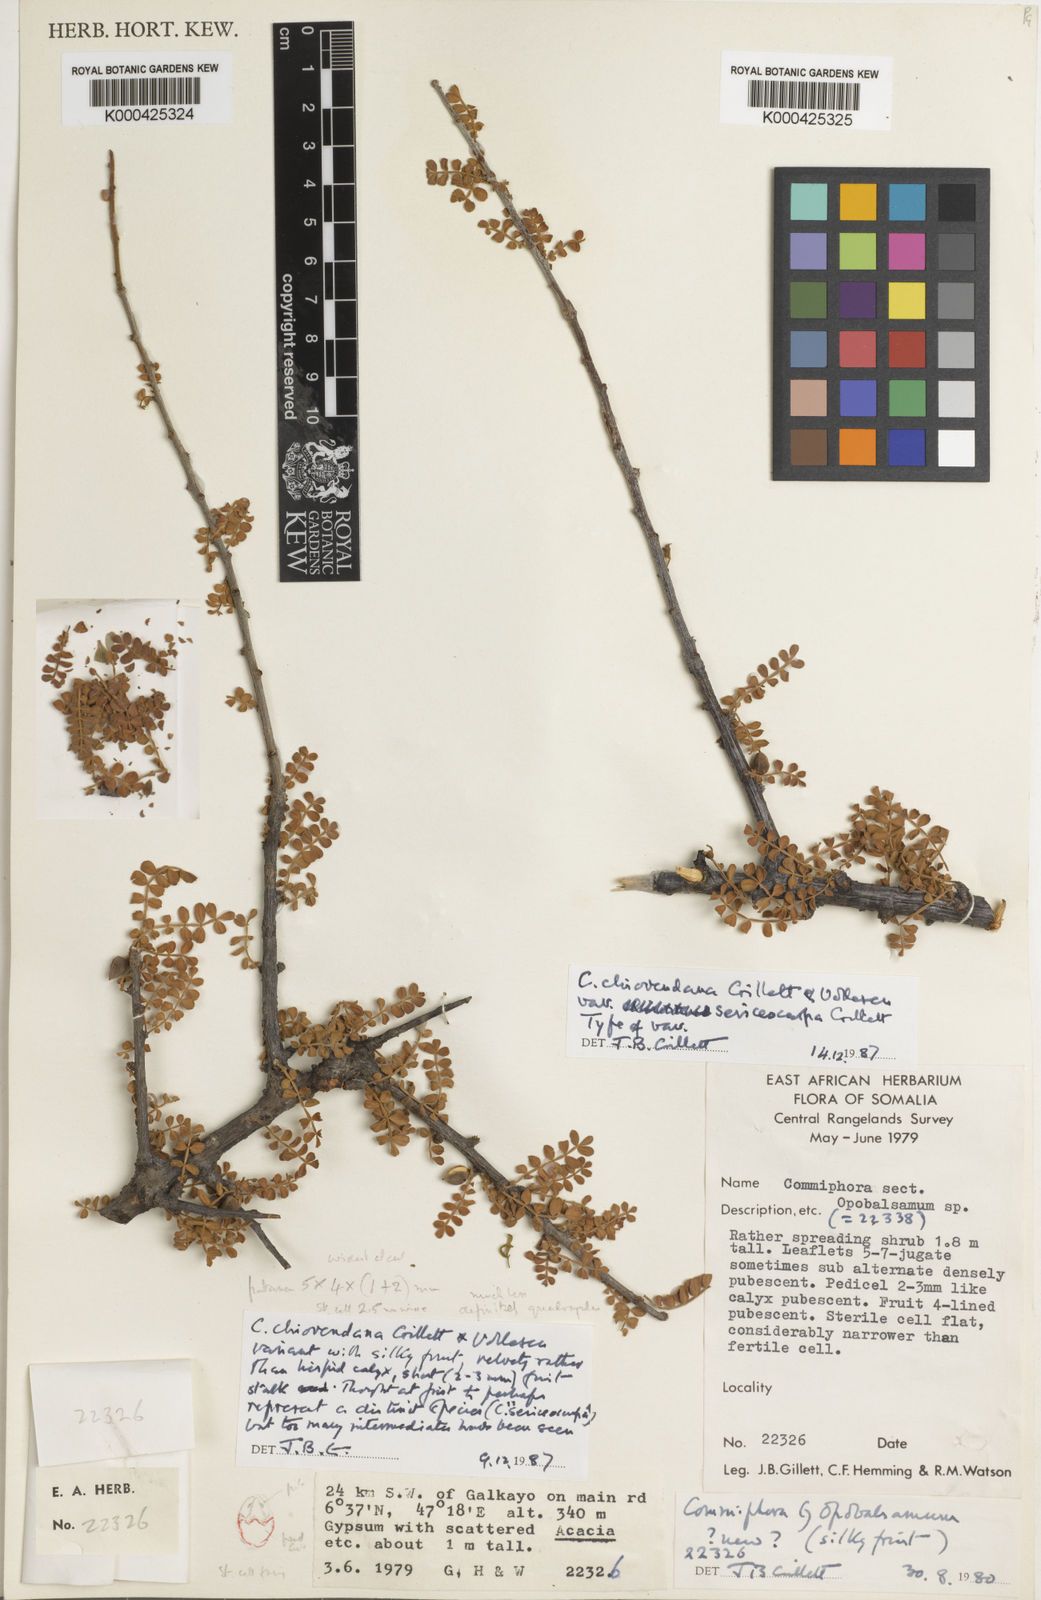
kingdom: Plantae
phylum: Tracheophyta
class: Magnoliopsida
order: Sapindales
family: Burseraceae
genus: Commiphora
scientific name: Commiphora chiovendana
